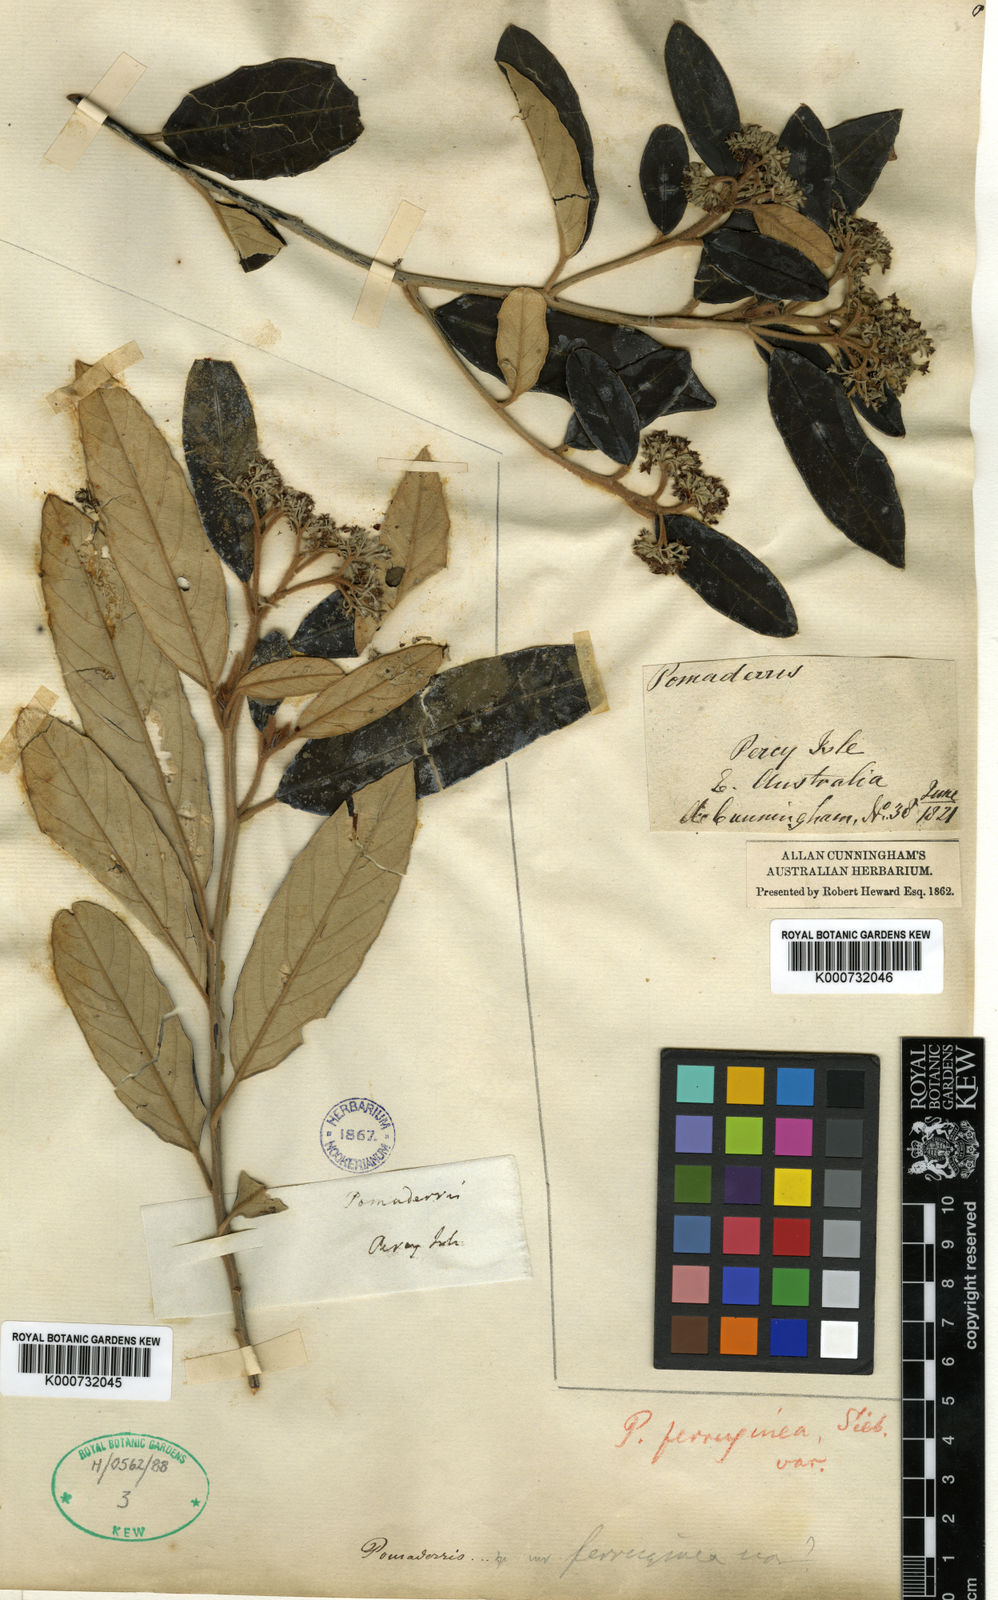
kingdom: Plantae
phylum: Tracheophyta
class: Magnoliopsida
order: Rosales
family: Rhamnaceae
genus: Pomaderris
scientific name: Pomaderris
